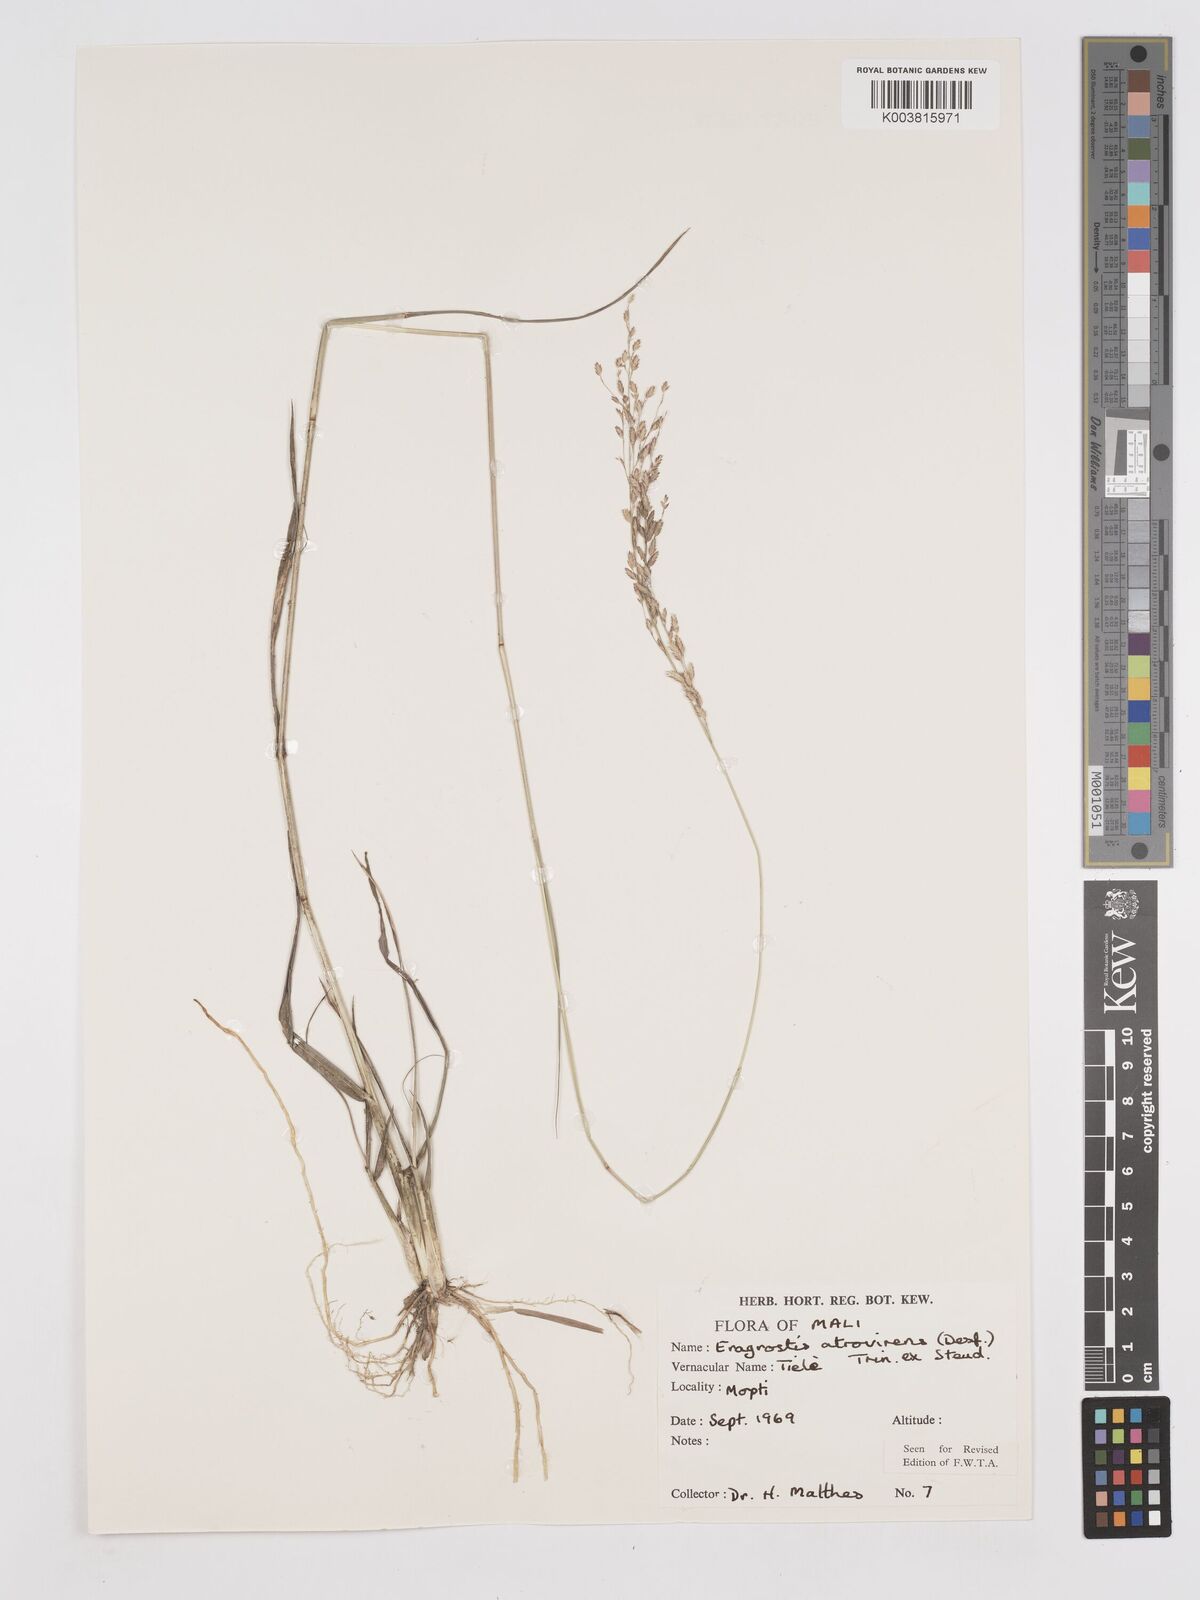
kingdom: Plantae
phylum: Tracheophyta
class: Liliopsida
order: Poales
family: Poaceae
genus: Eragrostis
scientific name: Eragrostis atrovirens
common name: Thalia lovegrass
